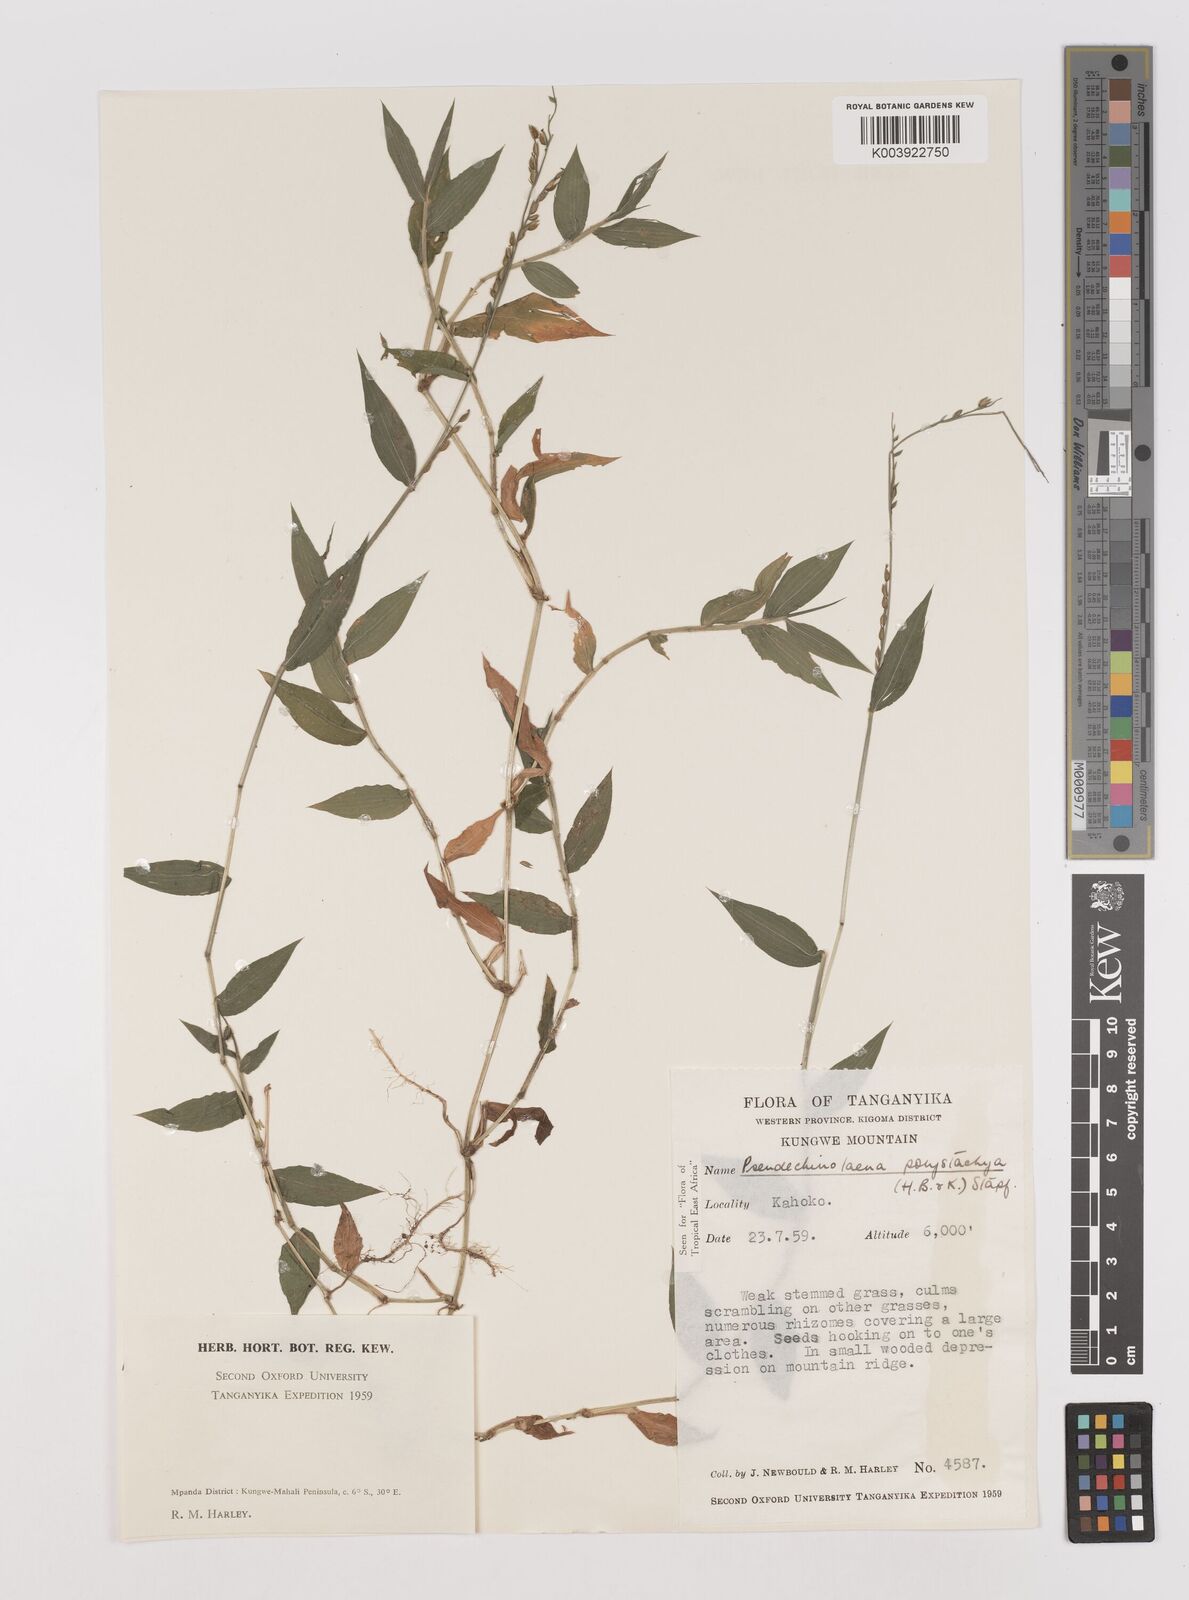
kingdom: Plantae
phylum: Tracheophyta
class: Liliopsida
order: Poales
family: Poaceae
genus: Pseudechinolaena
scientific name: Pseudechinolaena polystachya
